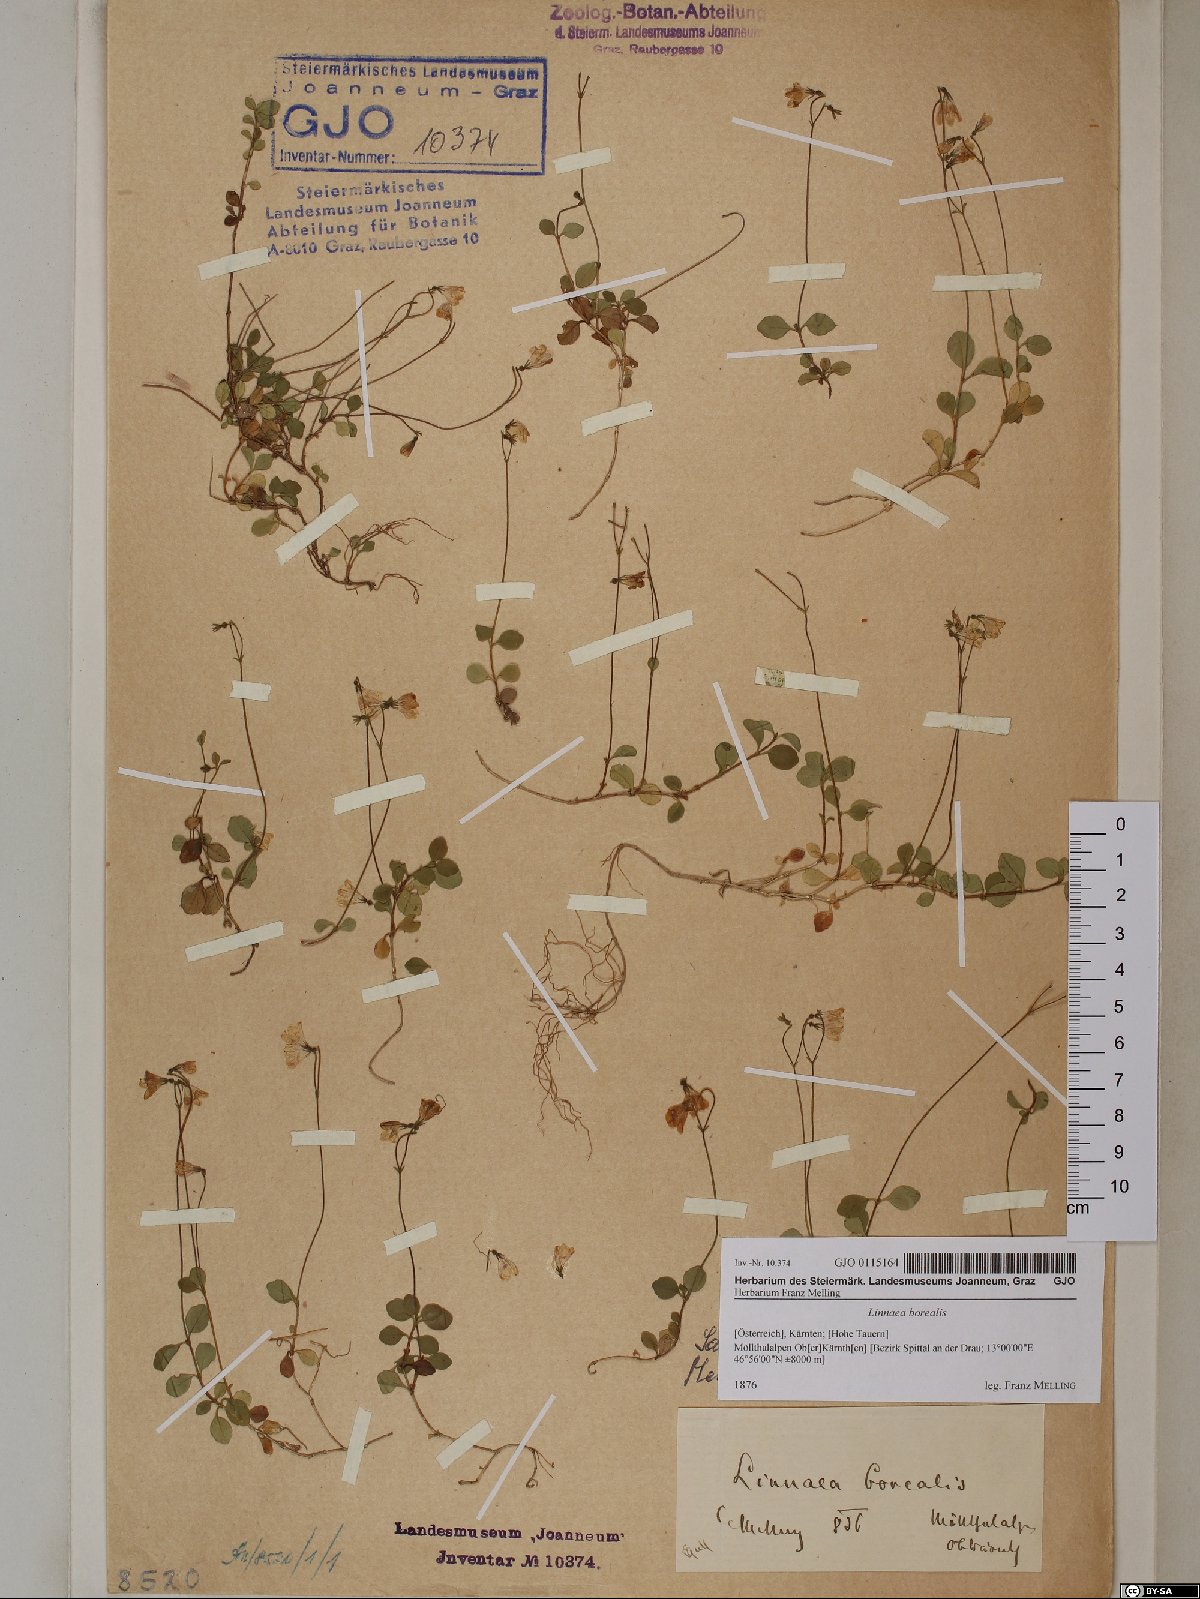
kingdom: Plantae
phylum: Tracheophyta
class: Magnoliopsida
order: Dipsacales
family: Caprifoliaceae
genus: Linnaea
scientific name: Linnaea borealis
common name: Twinflower
